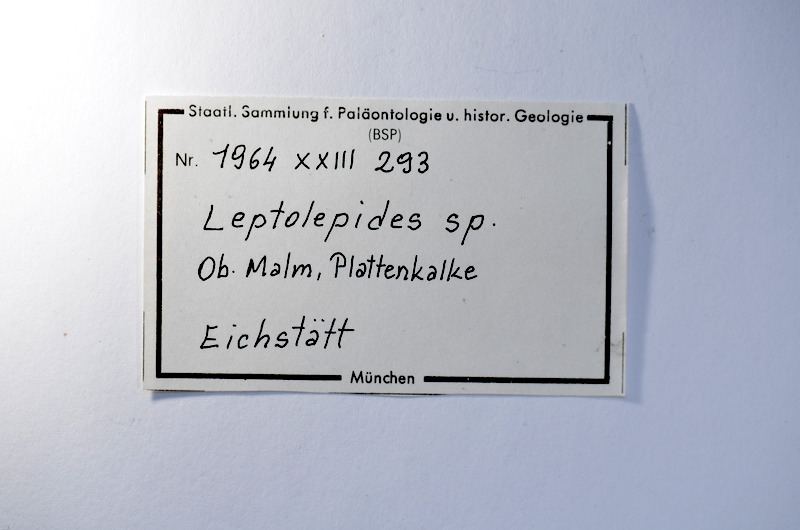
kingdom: Animalia
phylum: Chordata
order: Salmoniformes
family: Orthogonikleithridae
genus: Leptolepides
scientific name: Leptolepides
